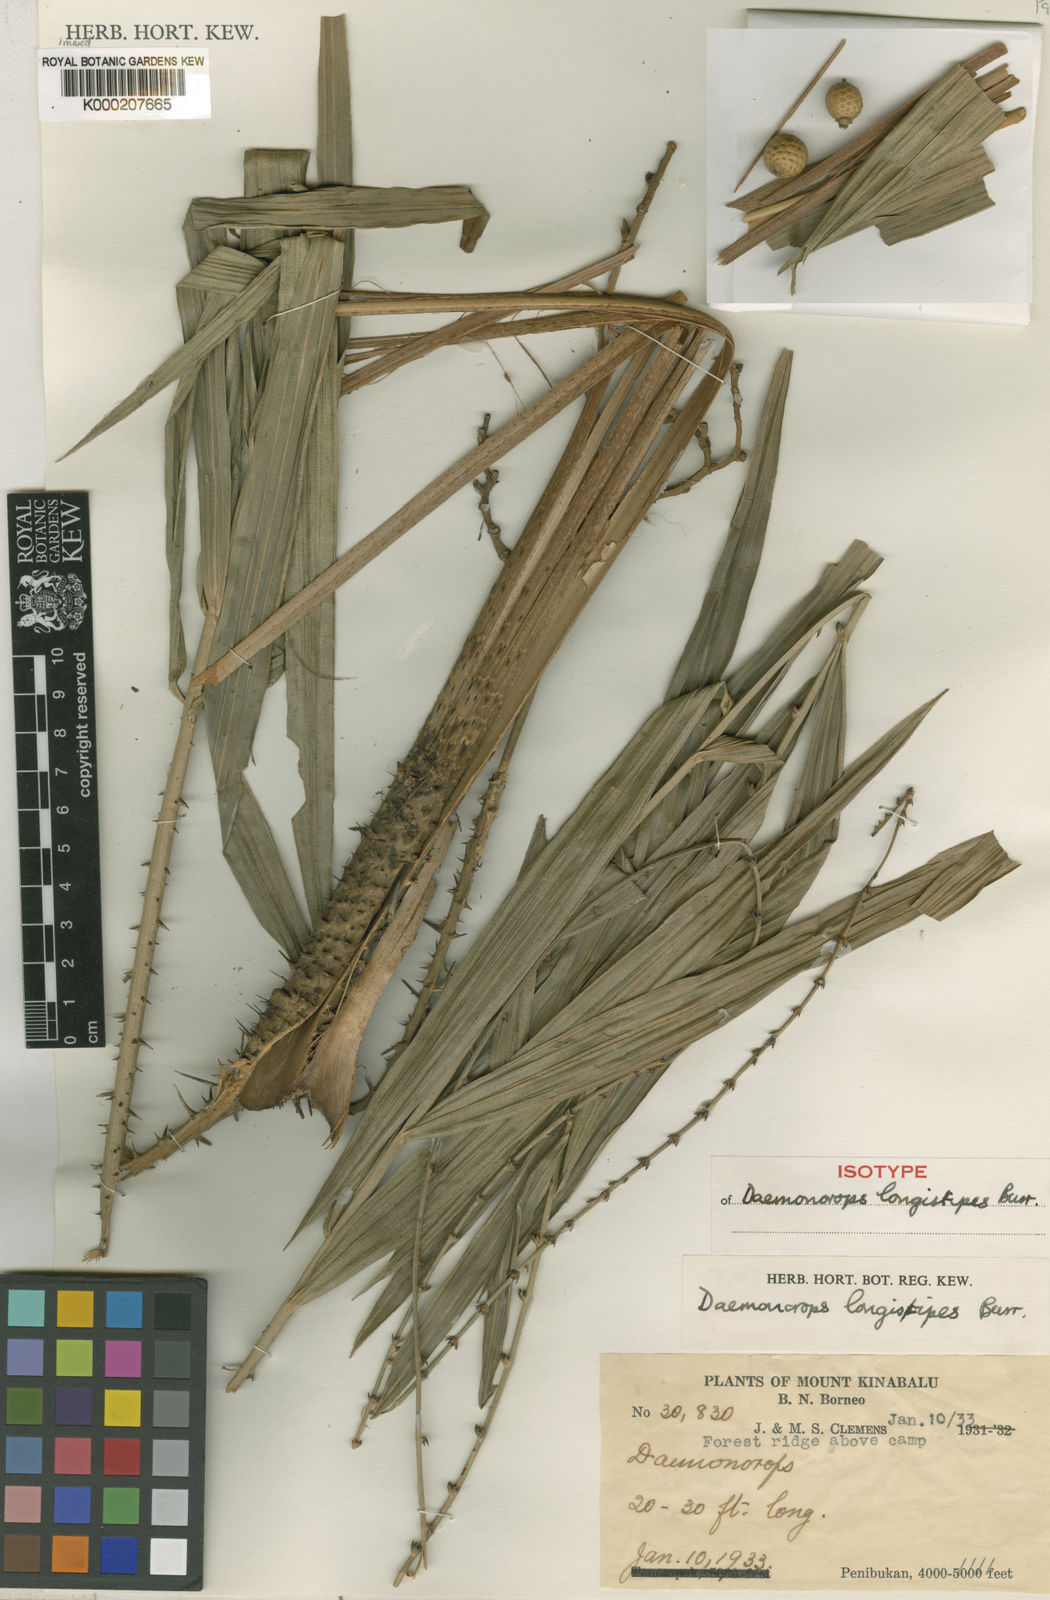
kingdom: Plantae
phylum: Tracheophyta
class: Liliopsida
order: Arecales
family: Arecaceae
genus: Calamus
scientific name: Calamus oblongus
